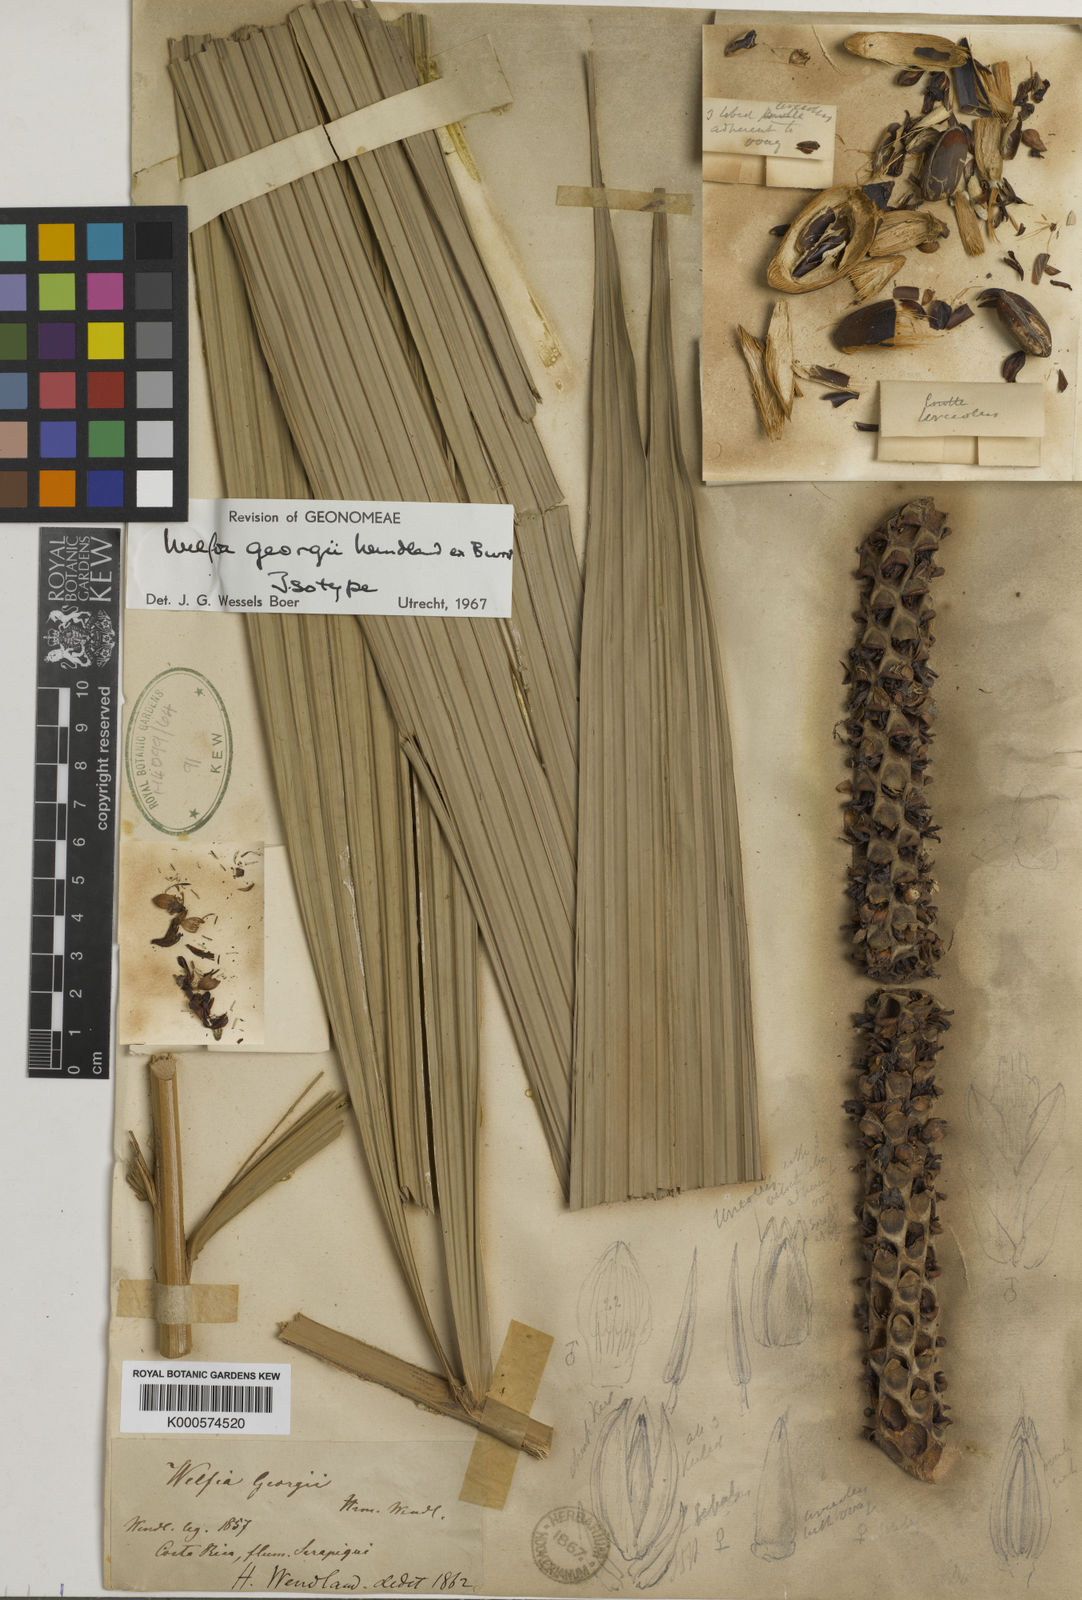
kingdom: Plantae
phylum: Tracheophyta
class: Liliopsida
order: Arecales
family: Arecaceae
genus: Welfia
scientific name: Welfia
